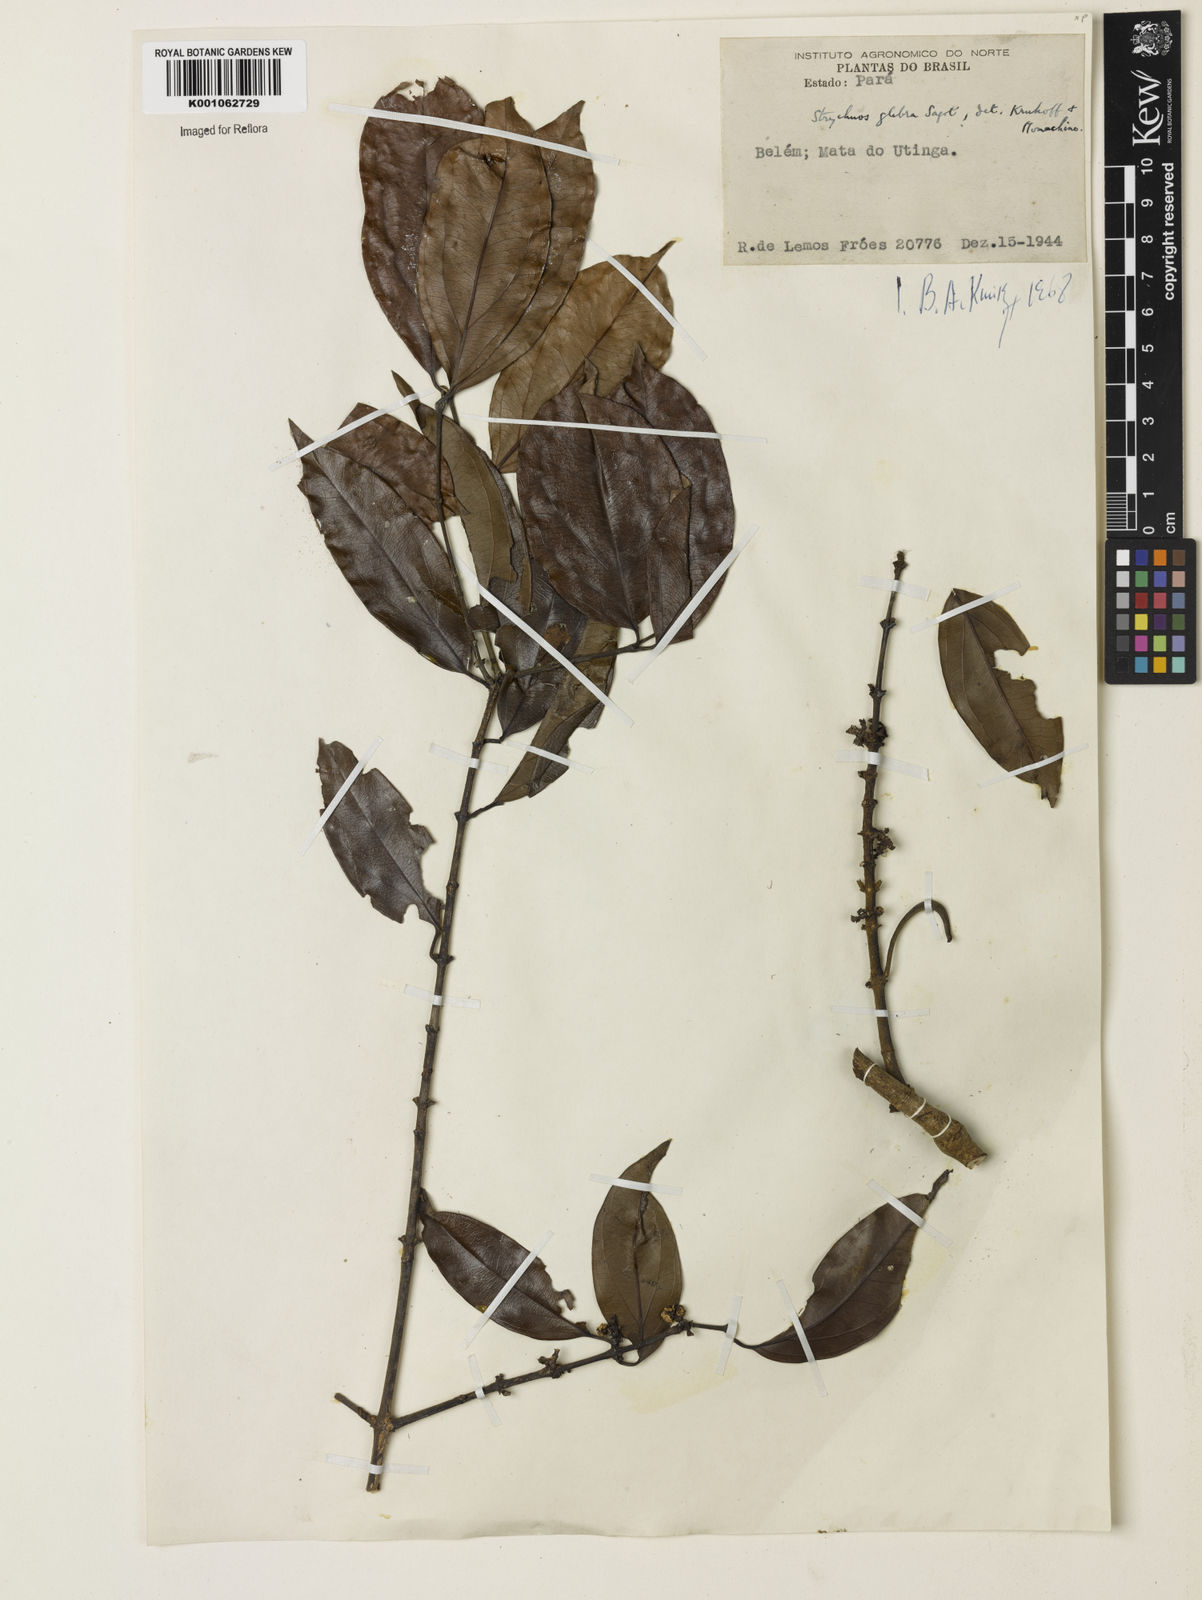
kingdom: Plantae
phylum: Tracheophyta
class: Magnoliopsida
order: Gentianales
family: Loganiaceae
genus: Strychnos
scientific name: Strychnos glabra
